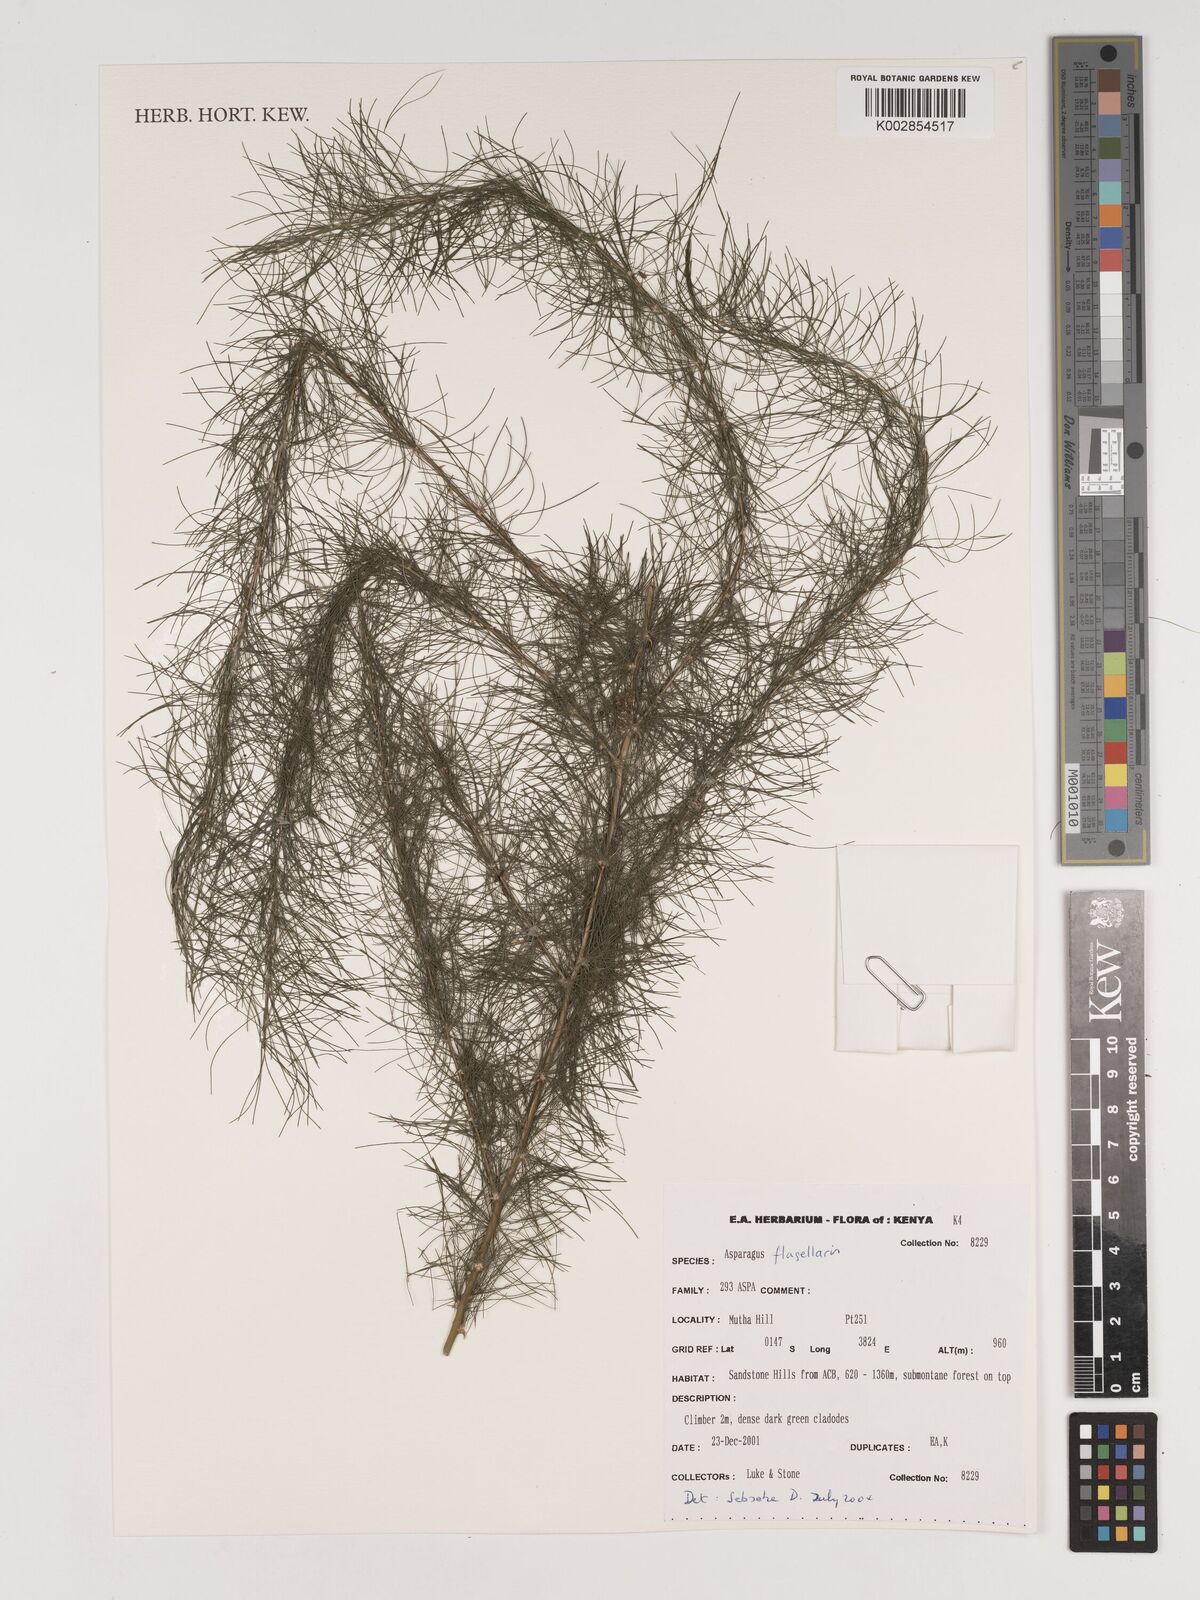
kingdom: Plantae
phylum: Tracheophyta
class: Liliopsida
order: Asparagales
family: Asparagaceae
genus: Asparagus
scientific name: Asparagus flagellaris
